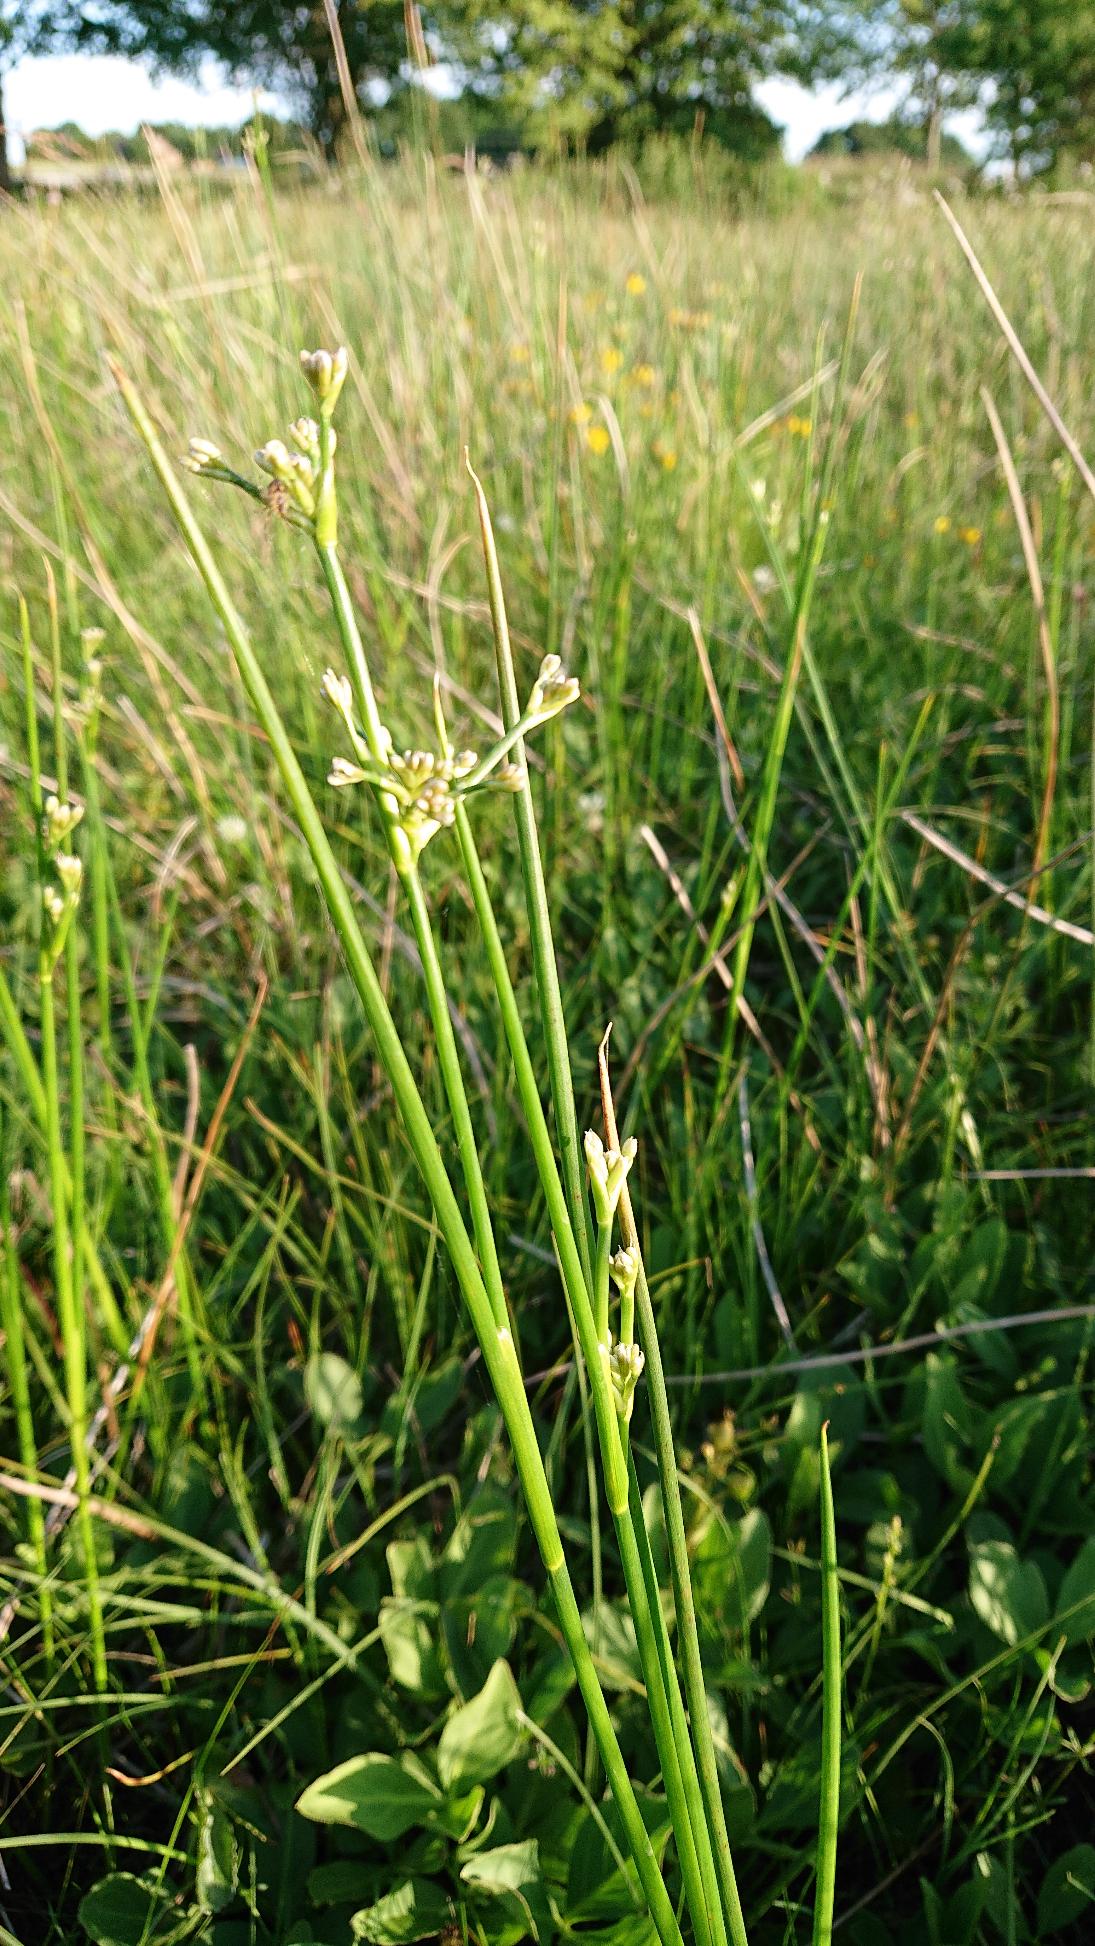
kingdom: Plantae
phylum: Tracheophyta
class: Liliopsida
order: Poales
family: Juncaceae
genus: Juncus
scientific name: Juncus subnodulosus
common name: Butblomstret siv
